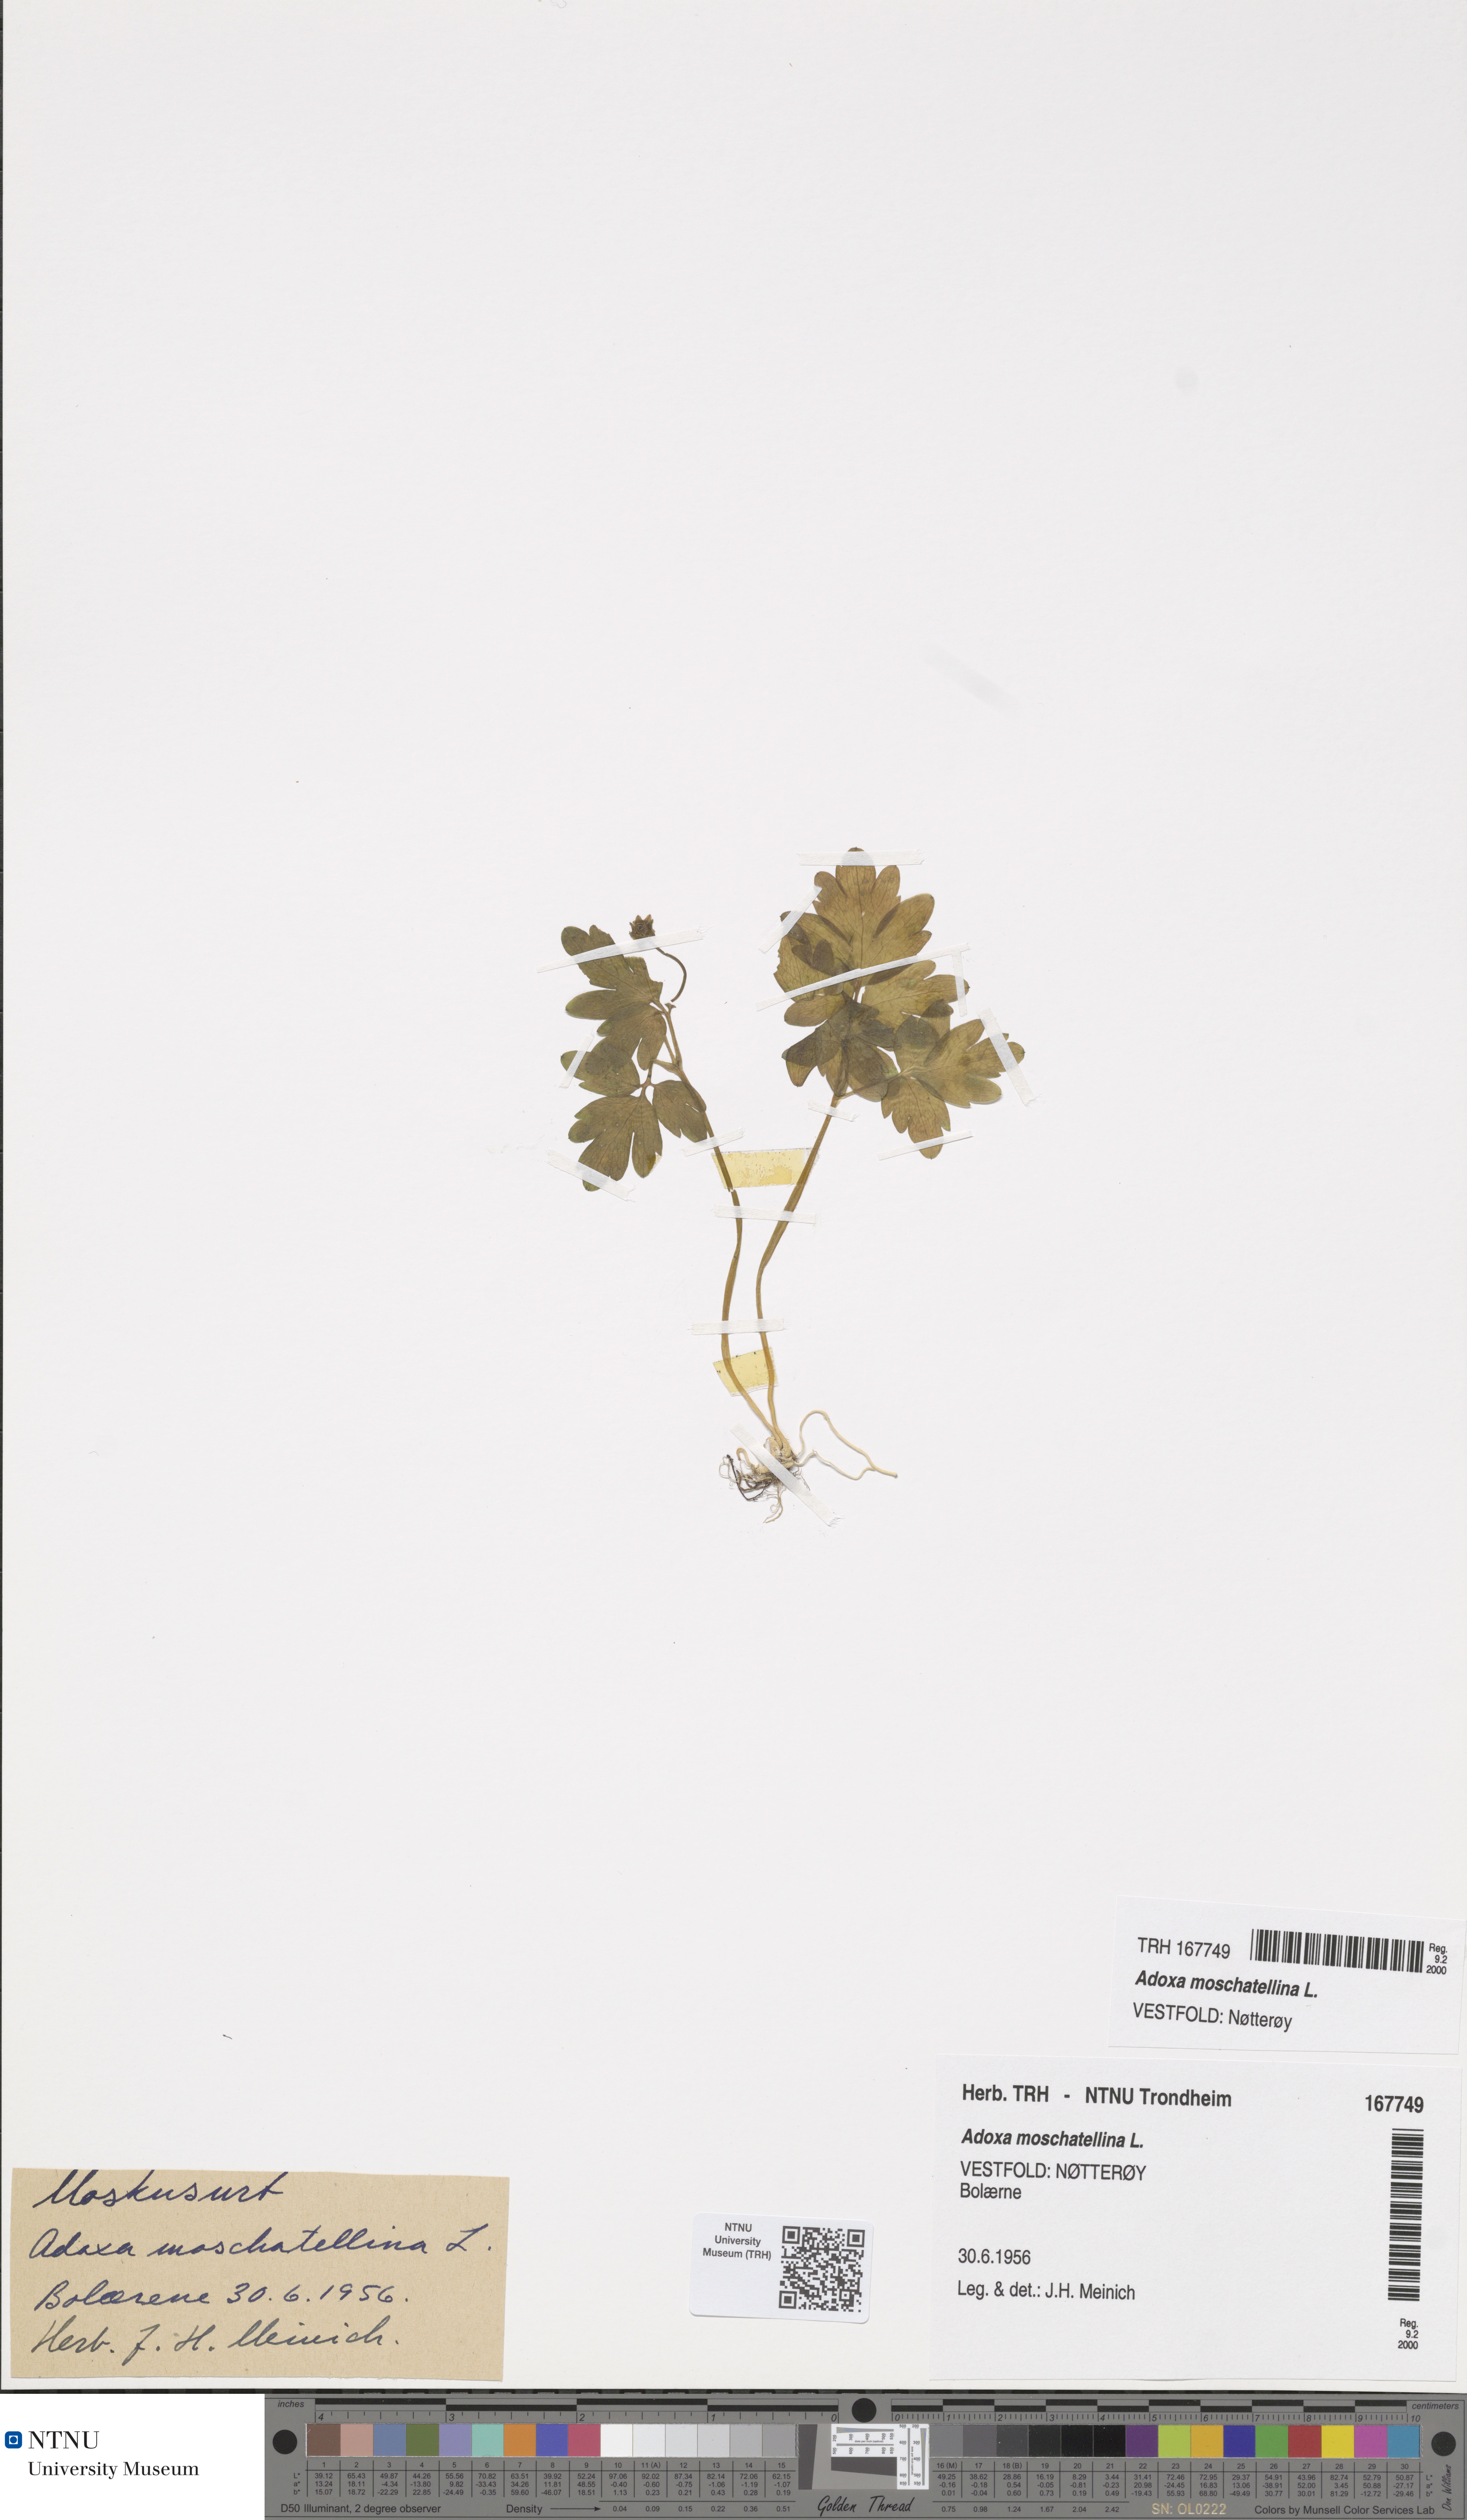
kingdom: Plantae
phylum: Tracheophyta
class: Magnoliopsida
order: Dipsacales
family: Viburnaceae
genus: Adoxa
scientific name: Adoxa moschatellina
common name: Moschatel
